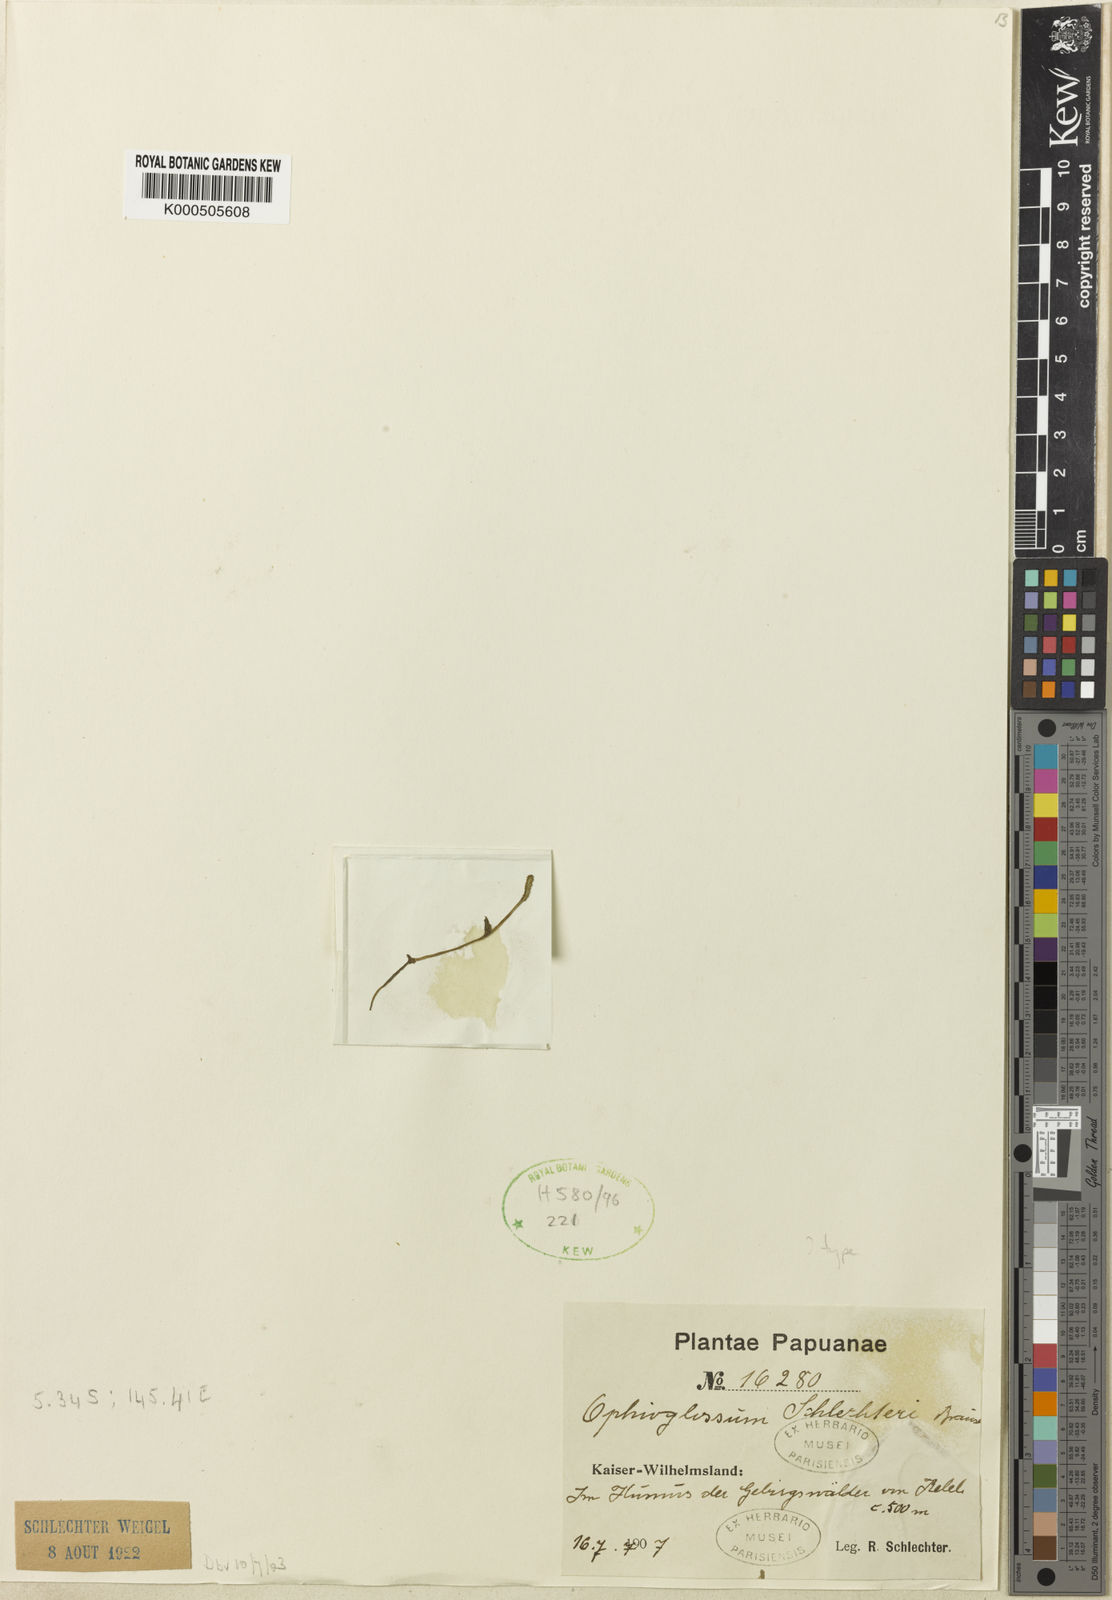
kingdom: Plantae
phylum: Tracheophyta
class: Polypodiopsida
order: Ophioglossales
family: Ophioglossaceae
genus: Ophioglossum
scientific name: Ophioglossum parvifolium
